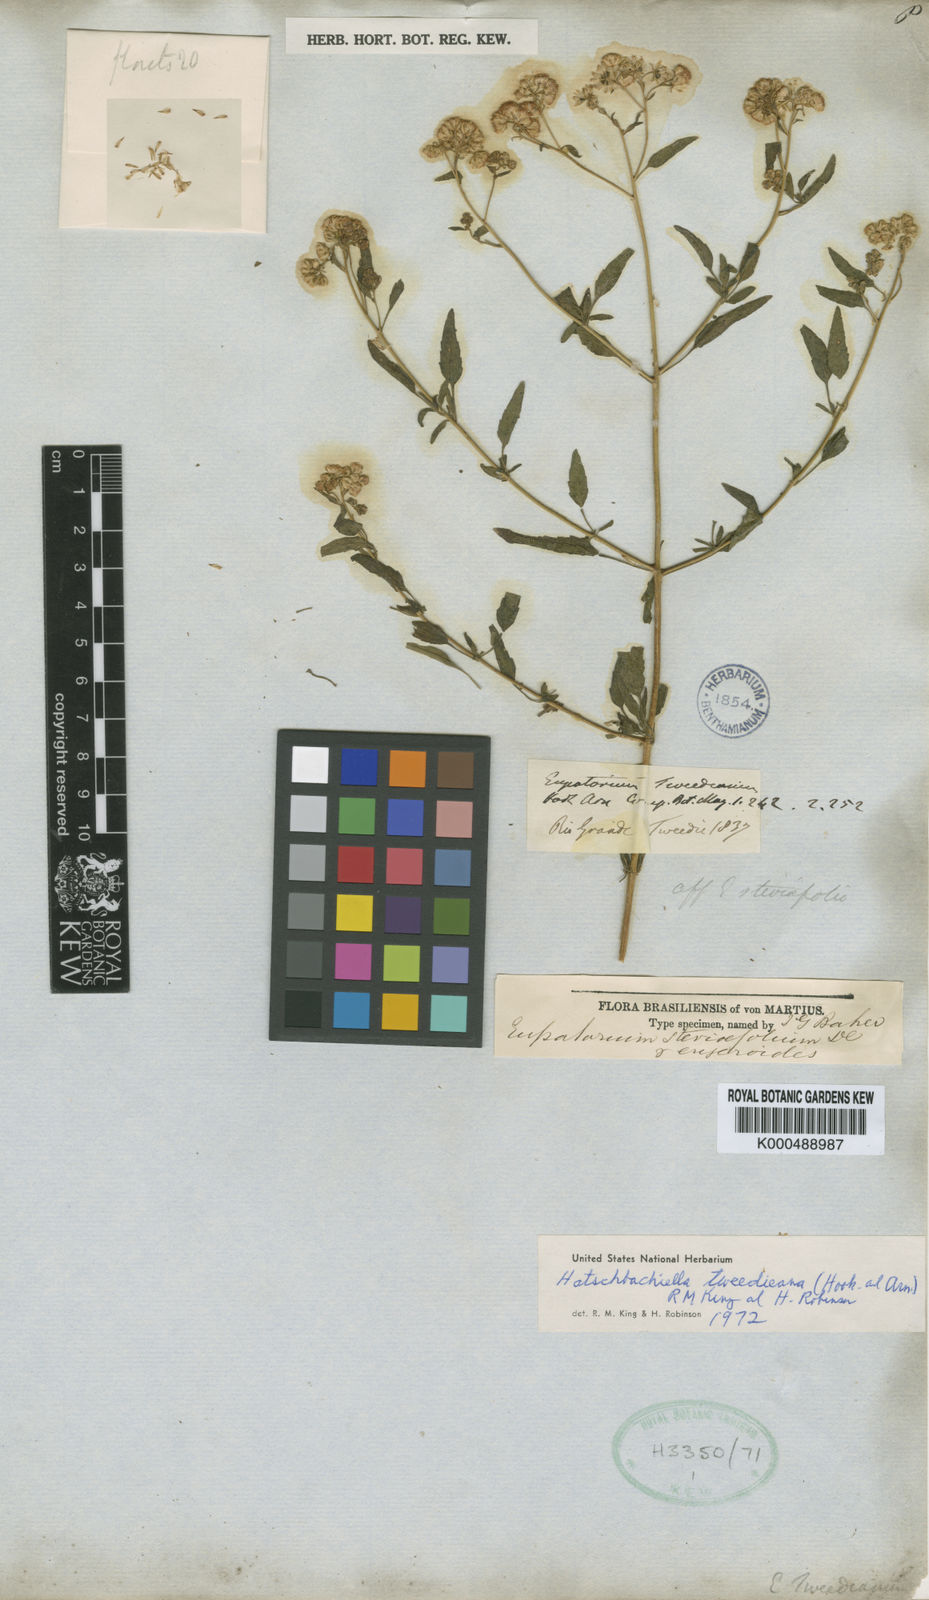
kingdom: Plantae
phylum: Tracheophyta
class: Magnoliopsida
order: Asterales
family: Asteraceae
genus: Hatschbachiella
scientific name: Hatschbachiella tweedieana
